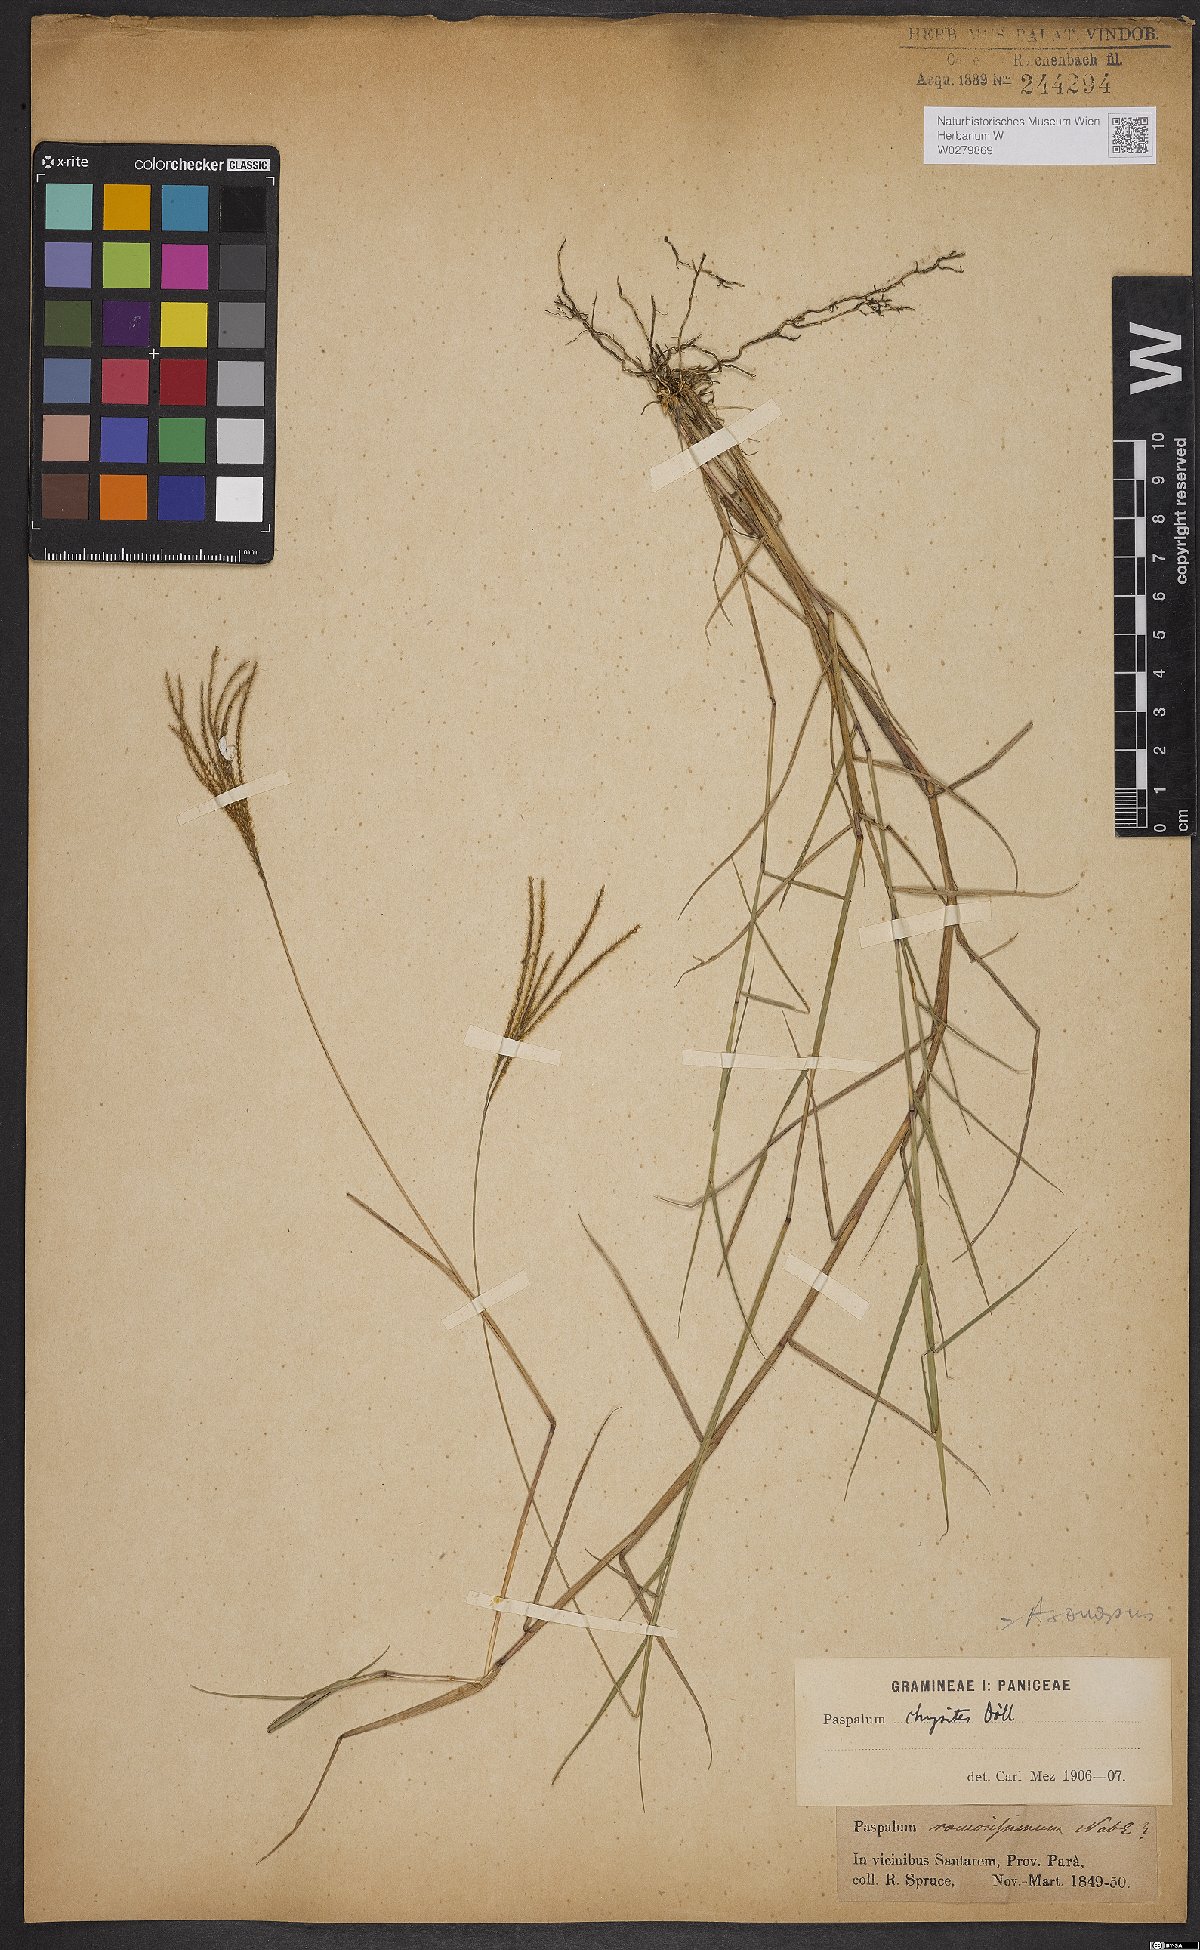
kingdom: Plantae
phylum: Tracheophyta
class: Liliopsida
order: Poales
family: Poaceae
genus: Axonopus
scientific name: Axonopus aureus
